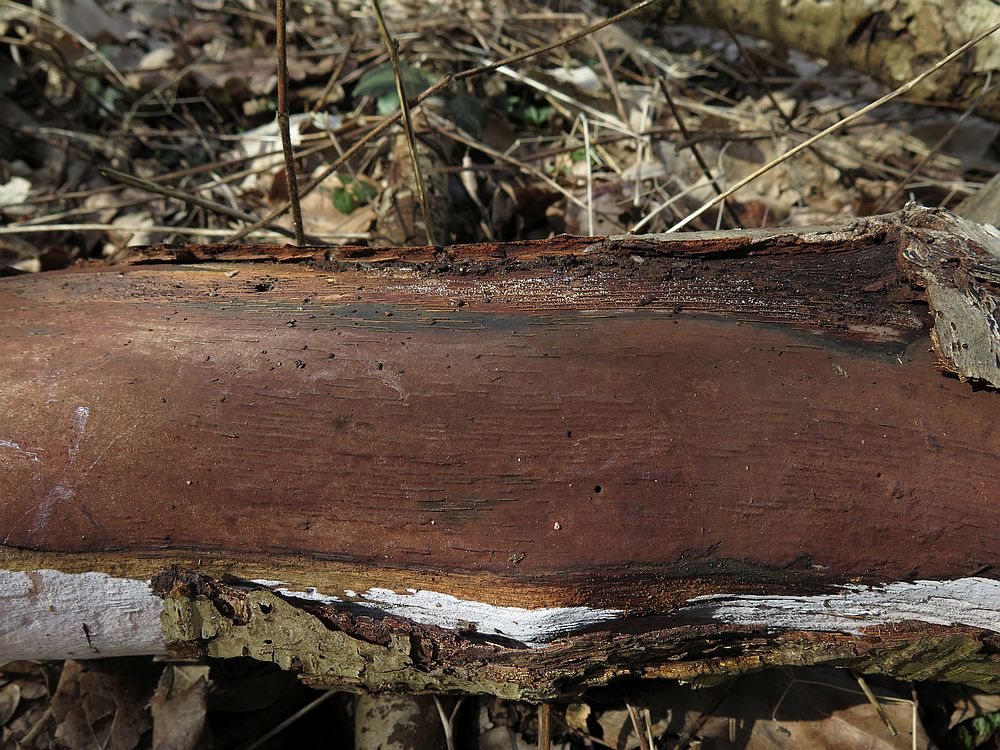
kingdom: Fungi
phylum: Ascomycota
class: Sordariomycetes
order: Xylariales
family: Hypoxylaceae
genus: Hypoxylon
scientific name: Hypoxylon macrocarpum
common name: skorpe-kulbær
